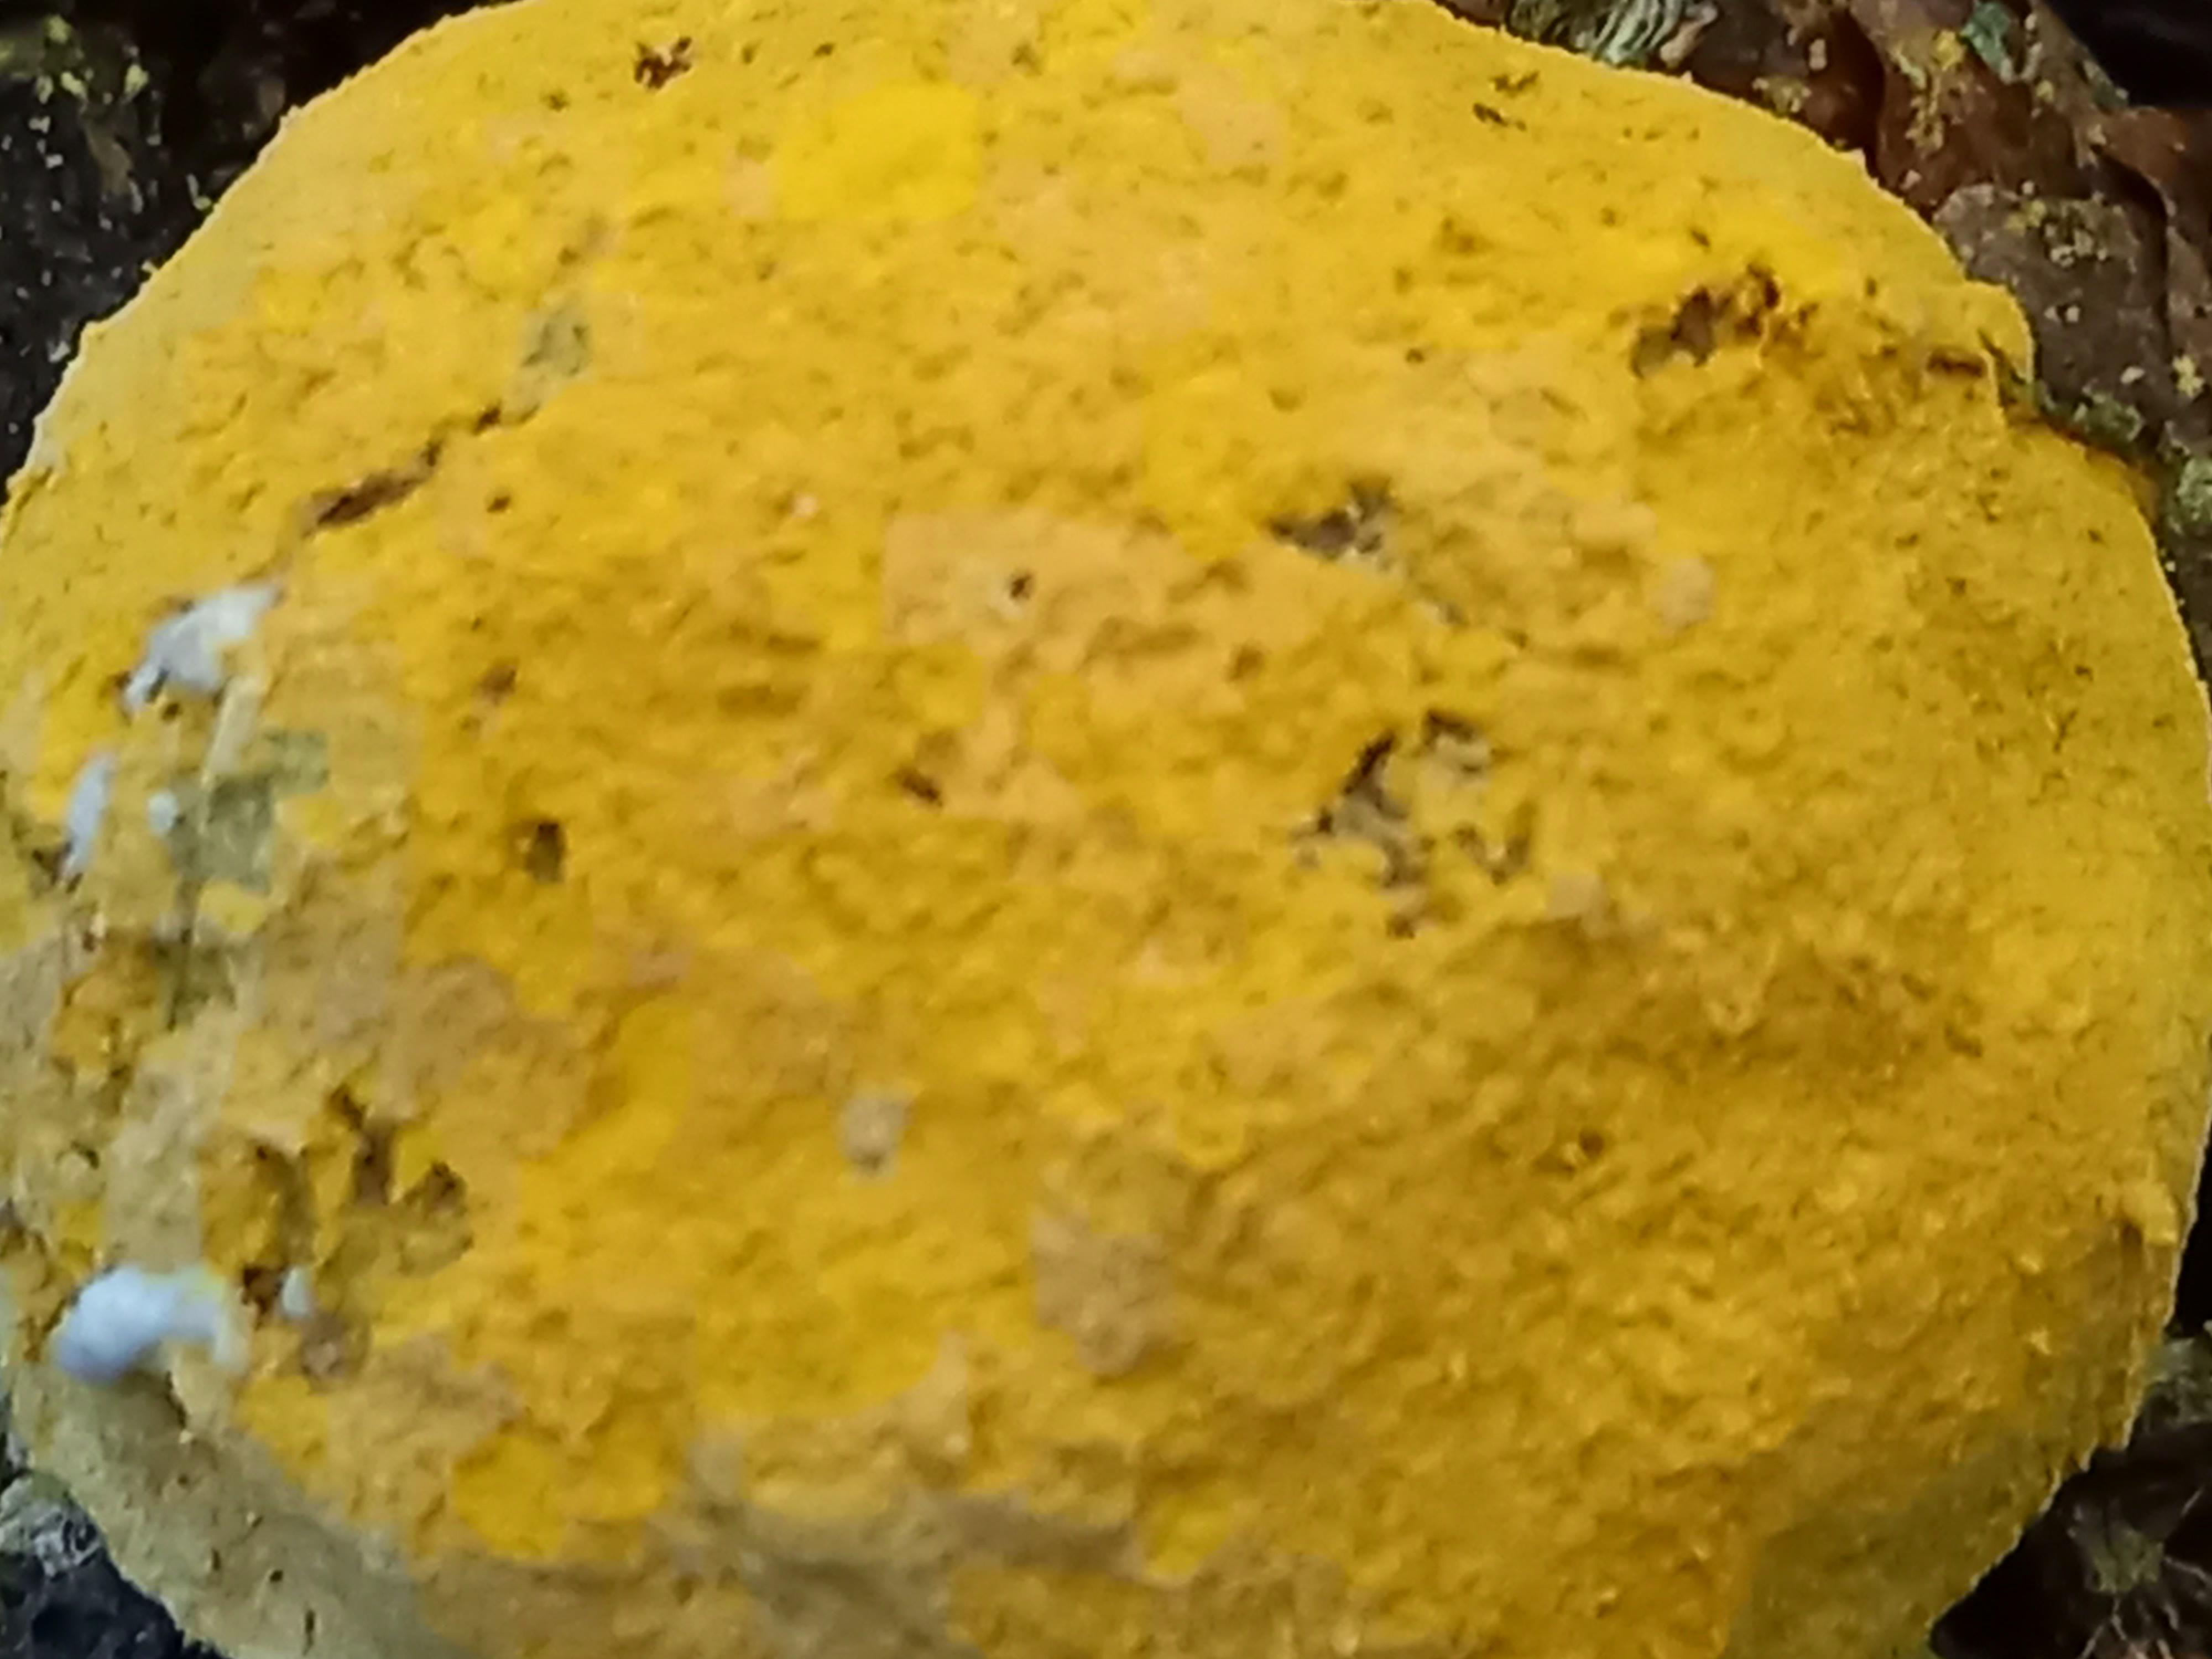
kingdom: Fungi
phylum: Ascomycota
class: Sordariomycetes
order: Hypocreales
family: Hypocreaceae
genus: Hypomyces
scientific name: Hypomyces
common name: snylteskorpe
